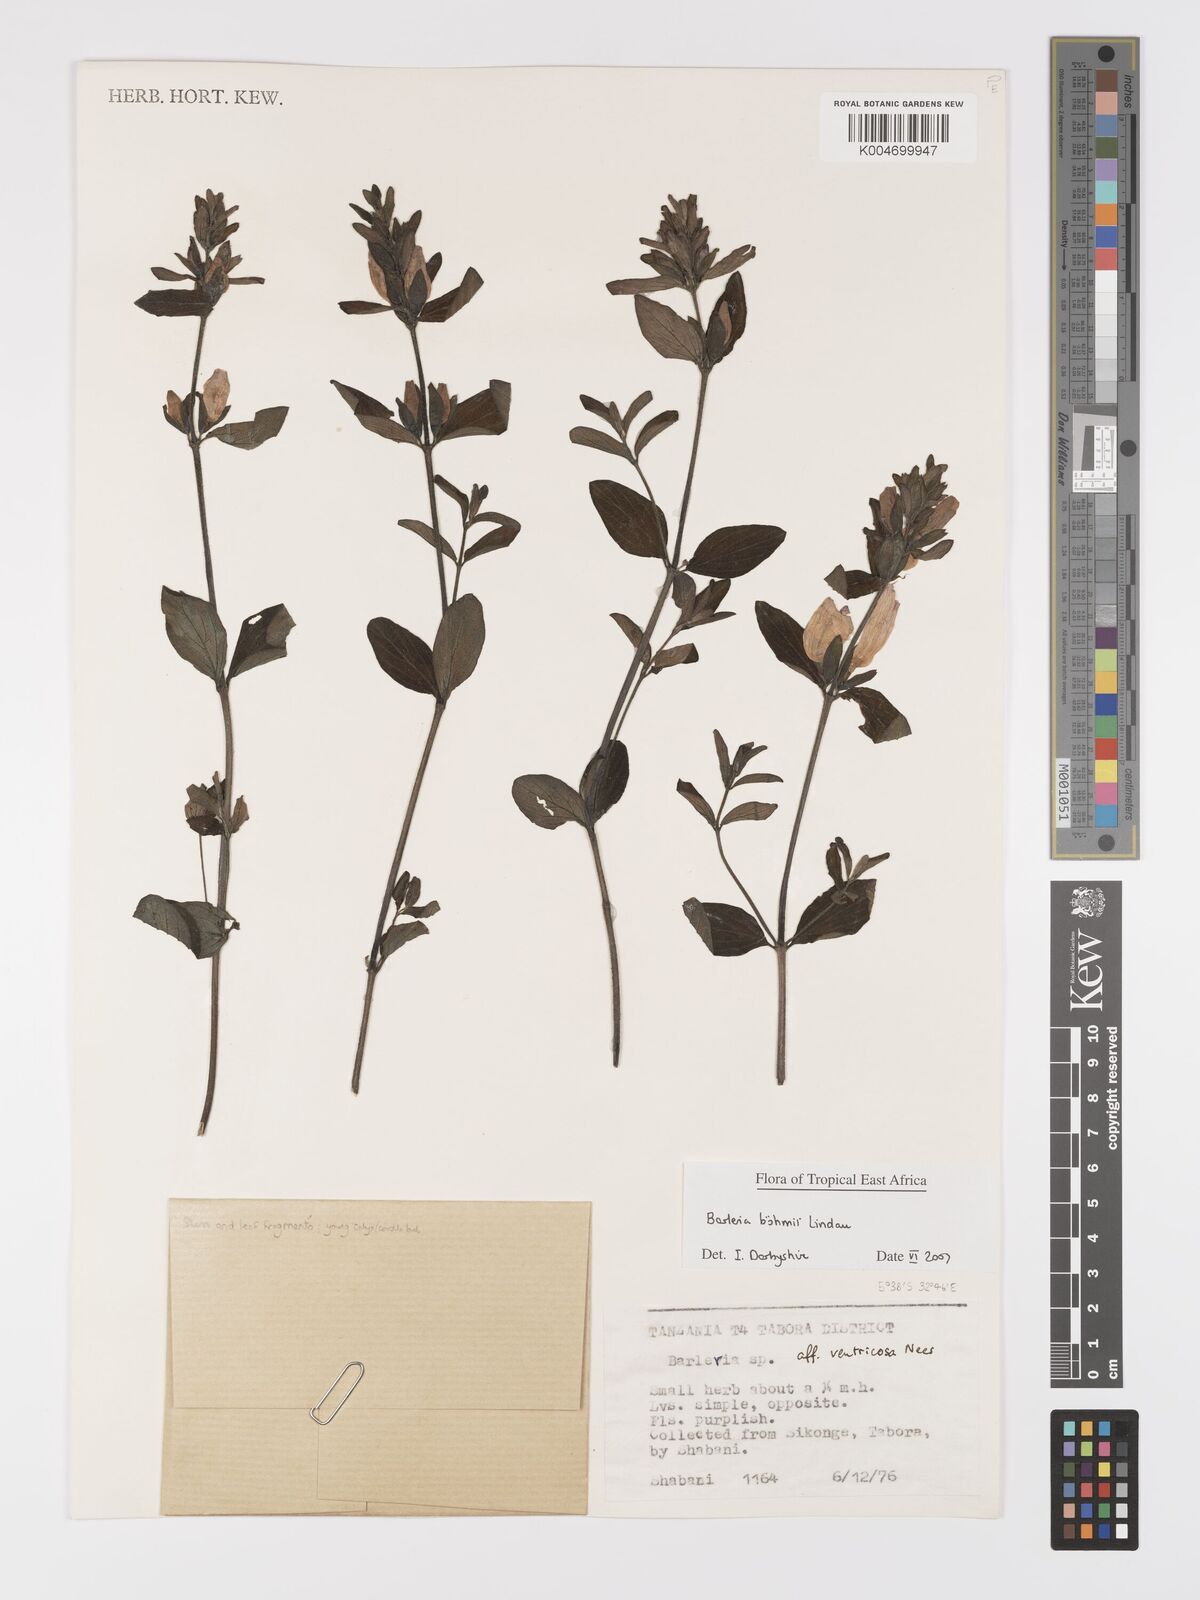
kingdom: Plantae
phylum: Tracheophyta
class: Magnoliopsida
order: Lamiales
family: Acanthaceae
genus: Barleria
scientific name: Barleria boehmii
